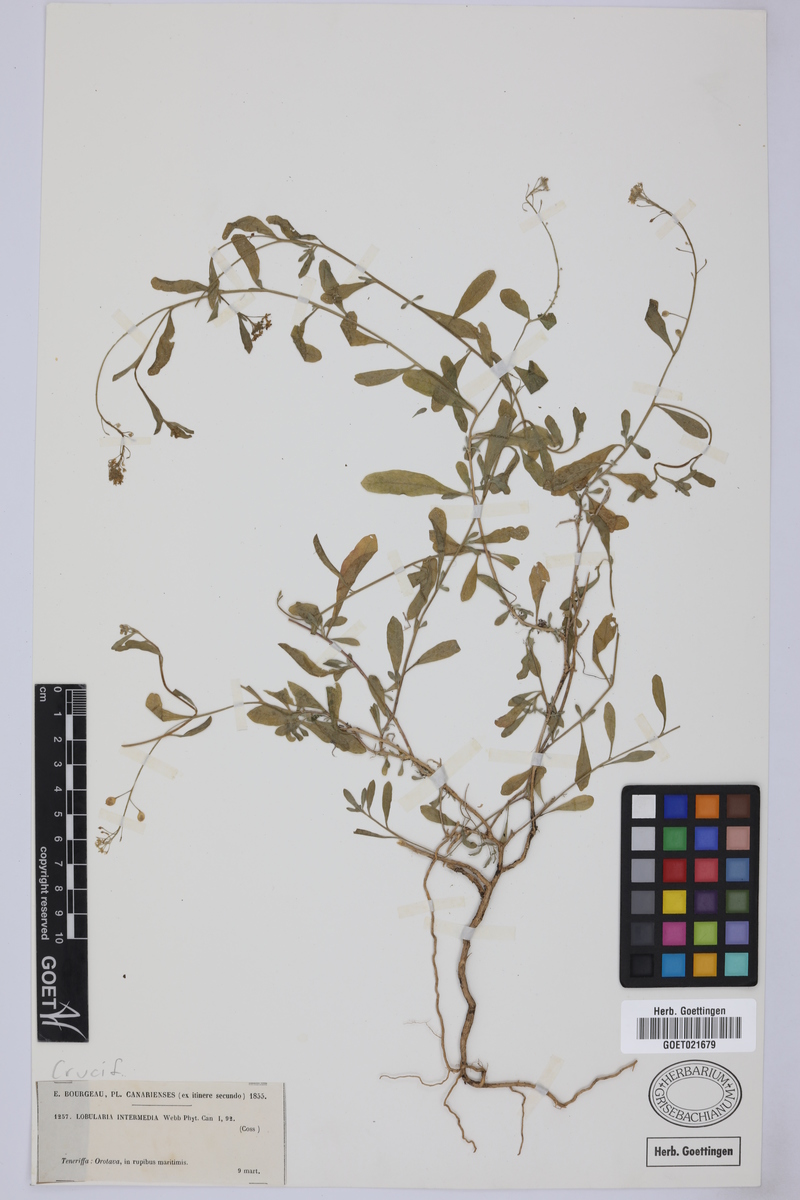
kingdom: Plantae
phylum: Tracheophyta
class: Magnoliopsida
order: Brassicales
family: Brassicaceae
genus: Lobularia
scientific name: Lobularia canariensis
